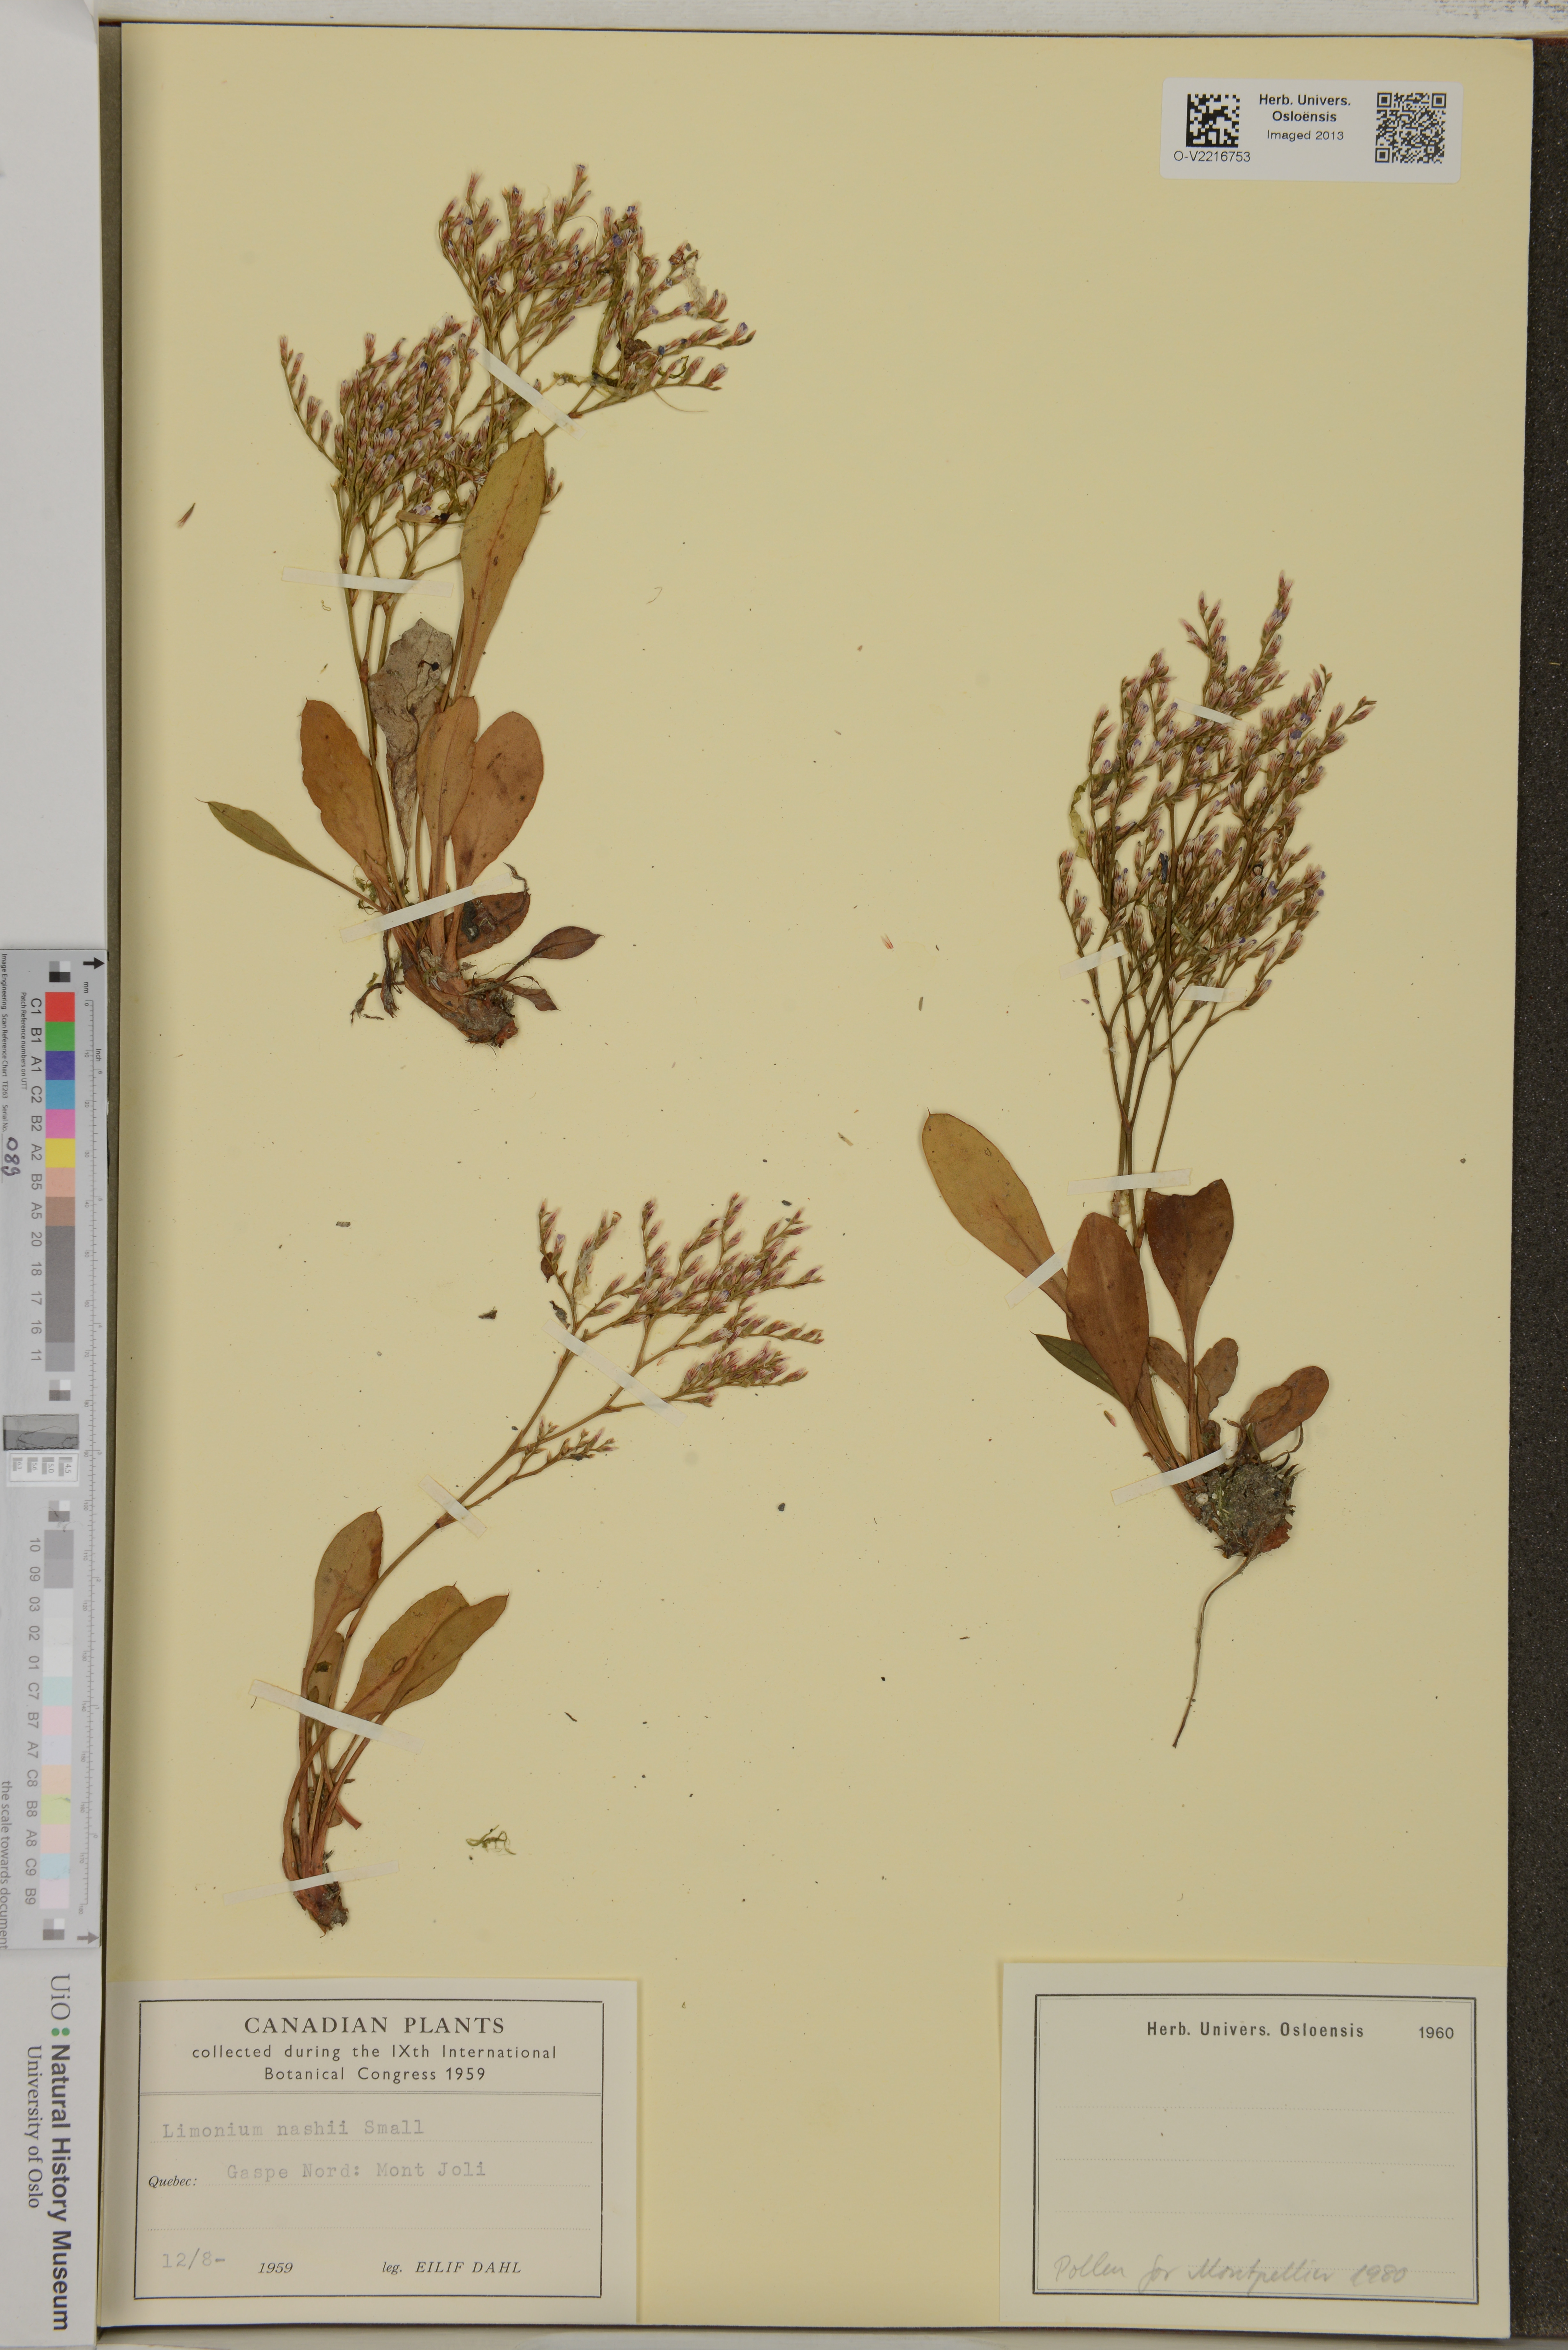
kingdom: Plantae
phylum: Tracheophyta
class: Magnoliopsida
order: Caryophyllales
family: Plumbaginaceae
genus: Limonium
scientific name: Limonium carolinianum
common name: Carolina sea lavender
